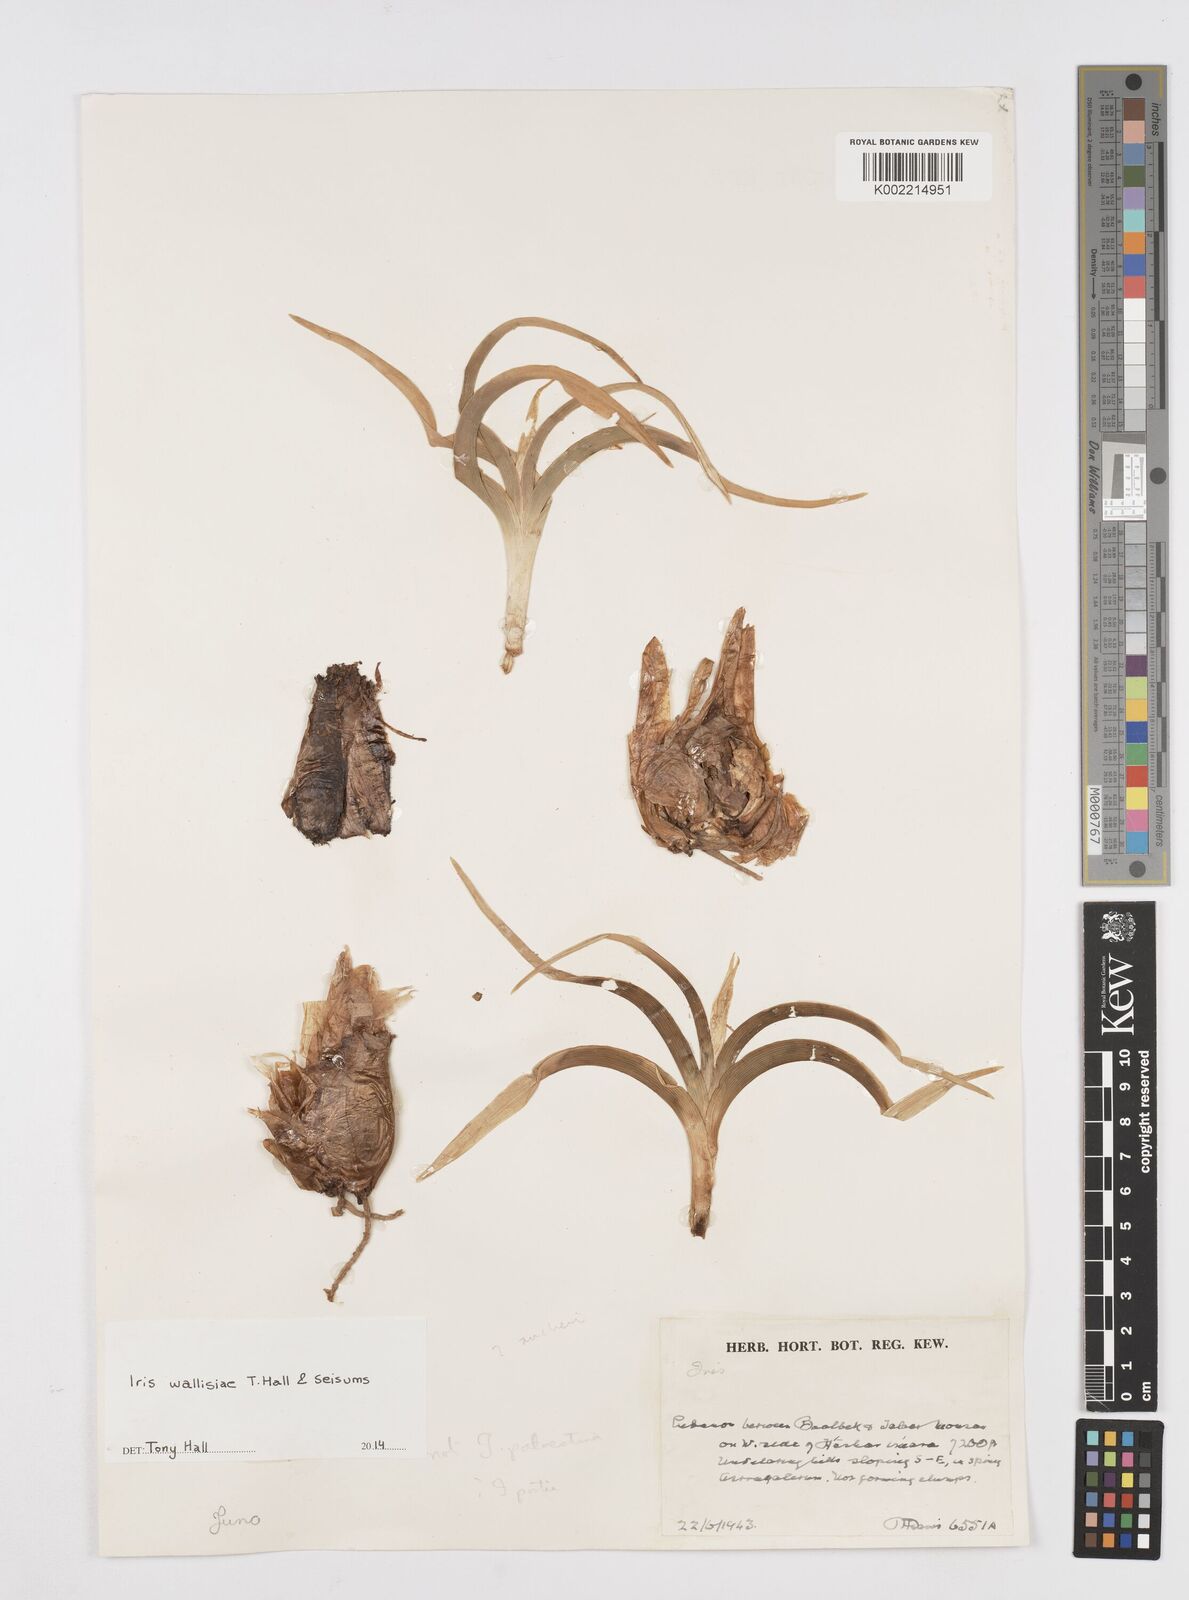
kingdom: Plantae
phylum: Tracheophyta
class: Liliopsida
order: Asparagales
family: Iridaceae
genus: Iris
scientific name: Iris wallisiae
